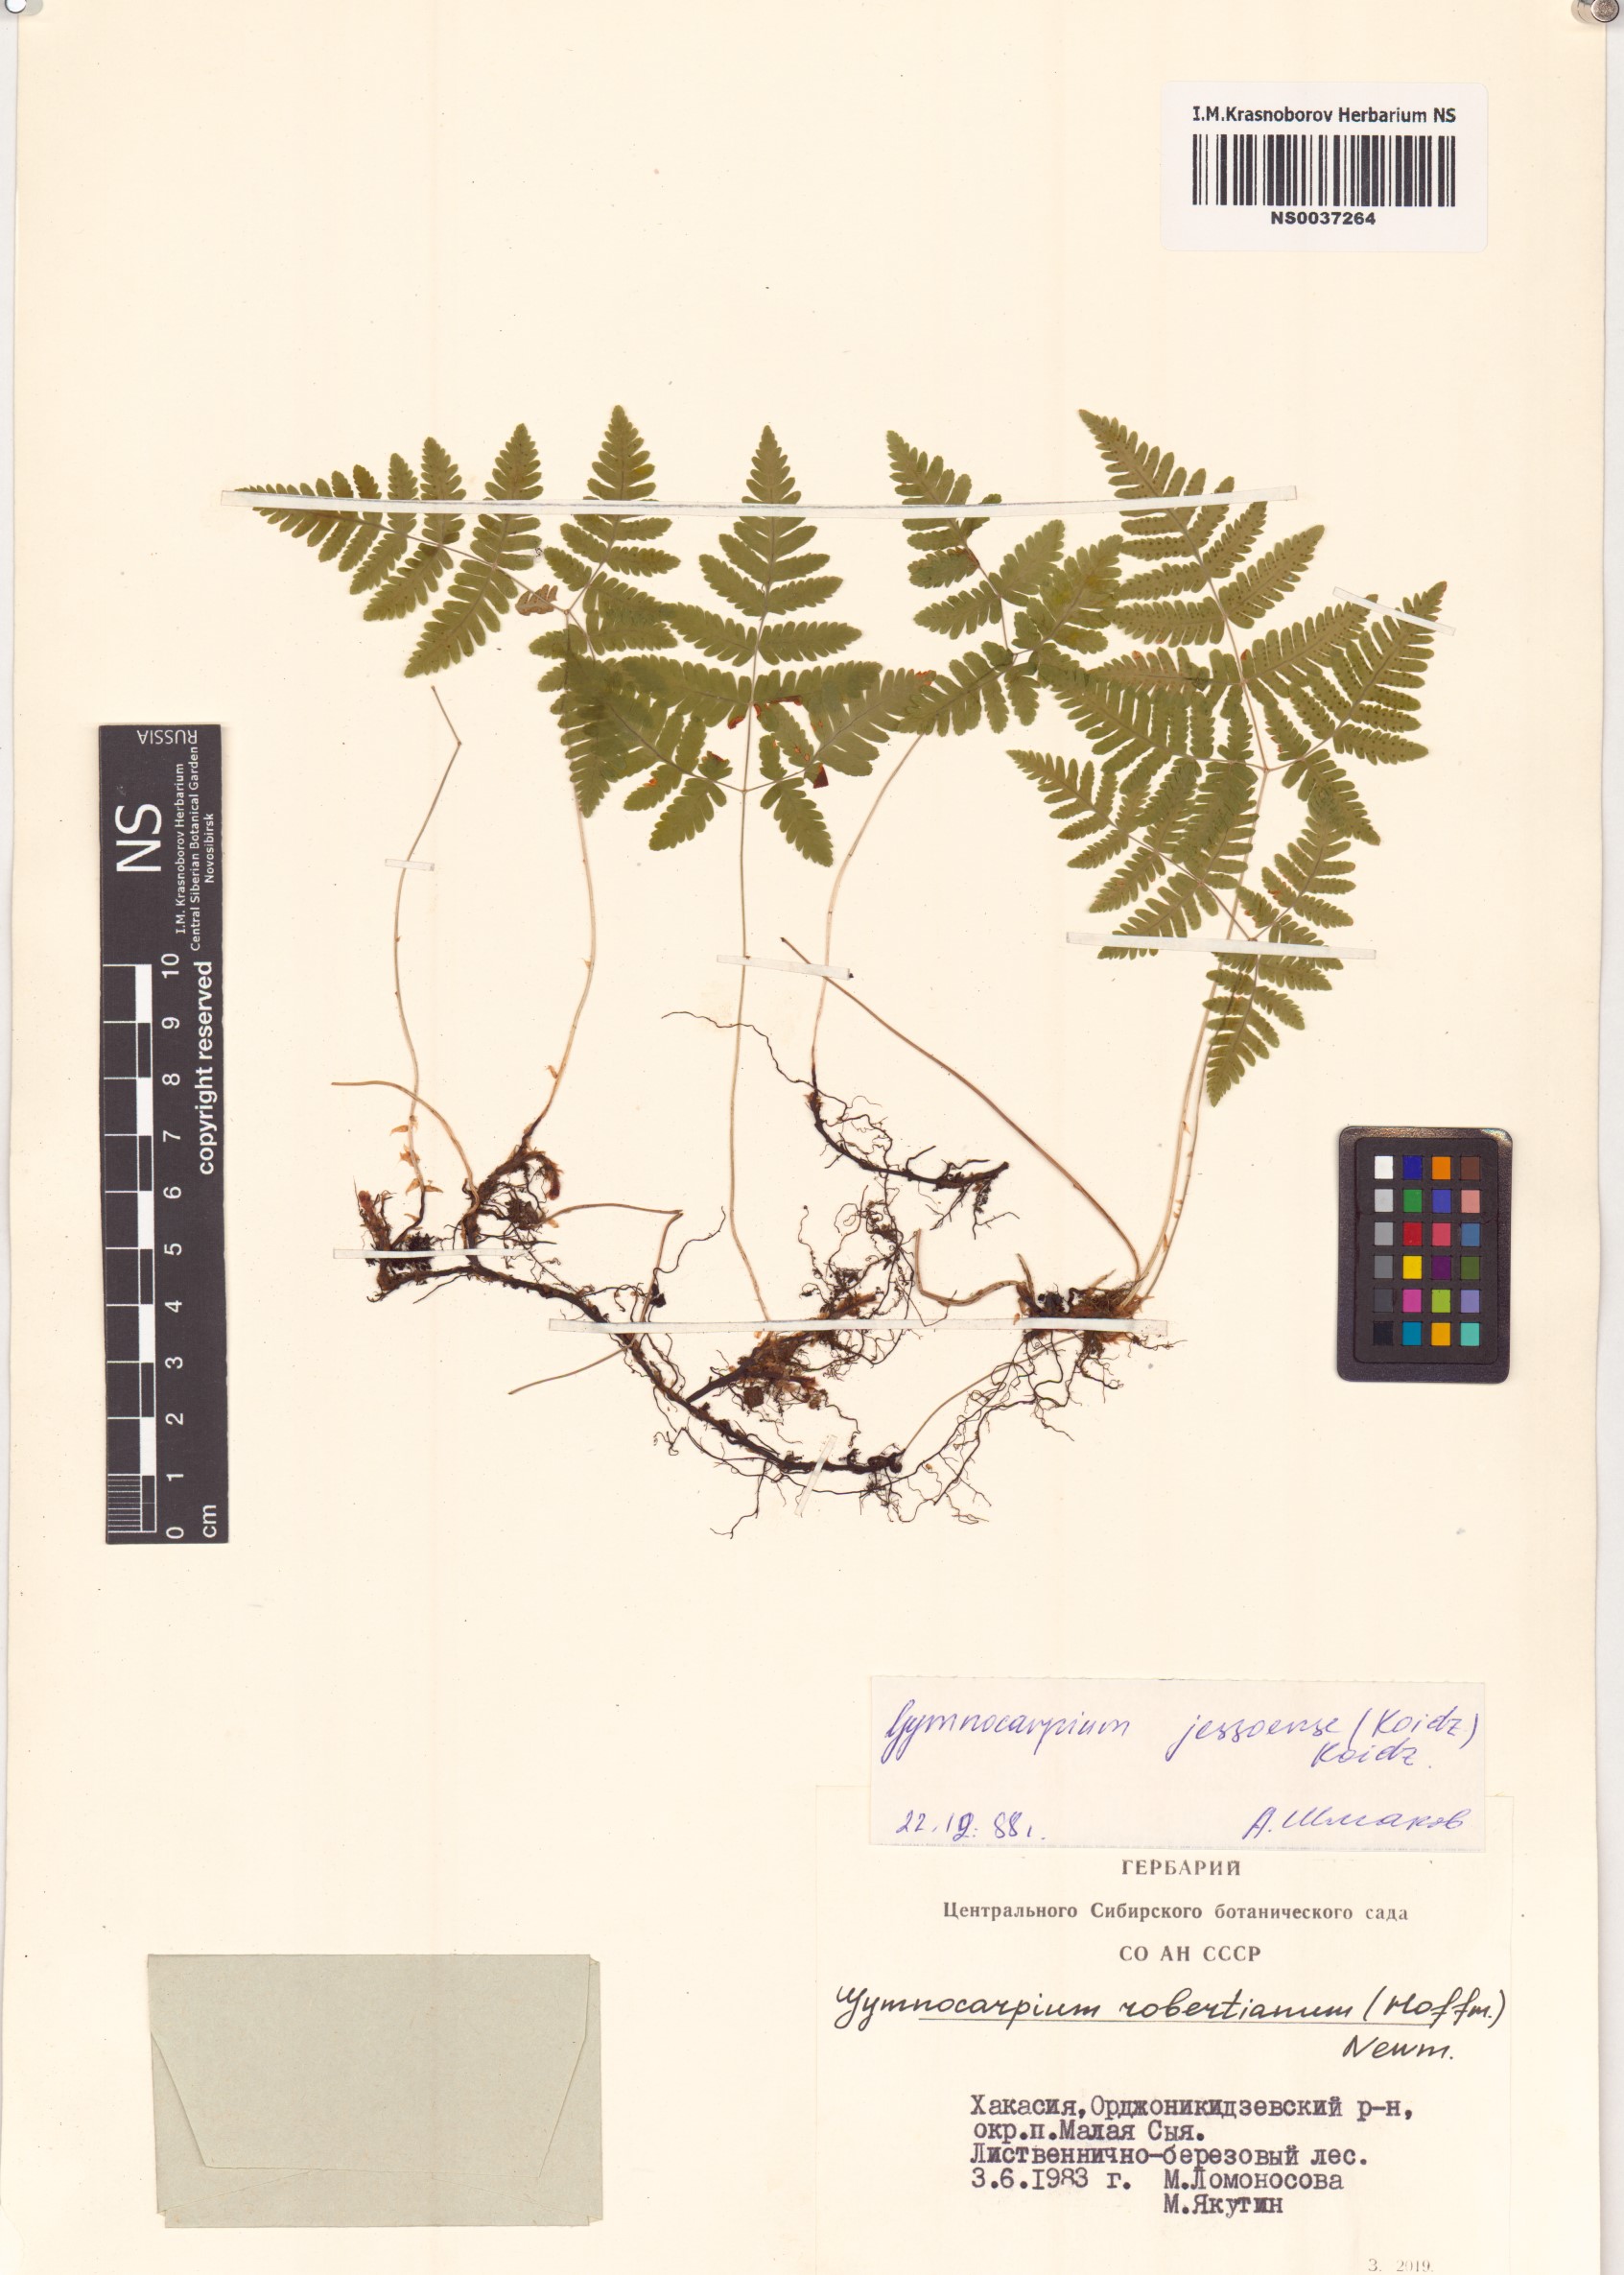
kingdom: Plantae
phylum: Tracheophyta
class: Polypodiopsida
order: Polypodiales
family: Cystopteridaceae
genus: Gymnocarpium
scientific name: Gymnocarpium jessoense
